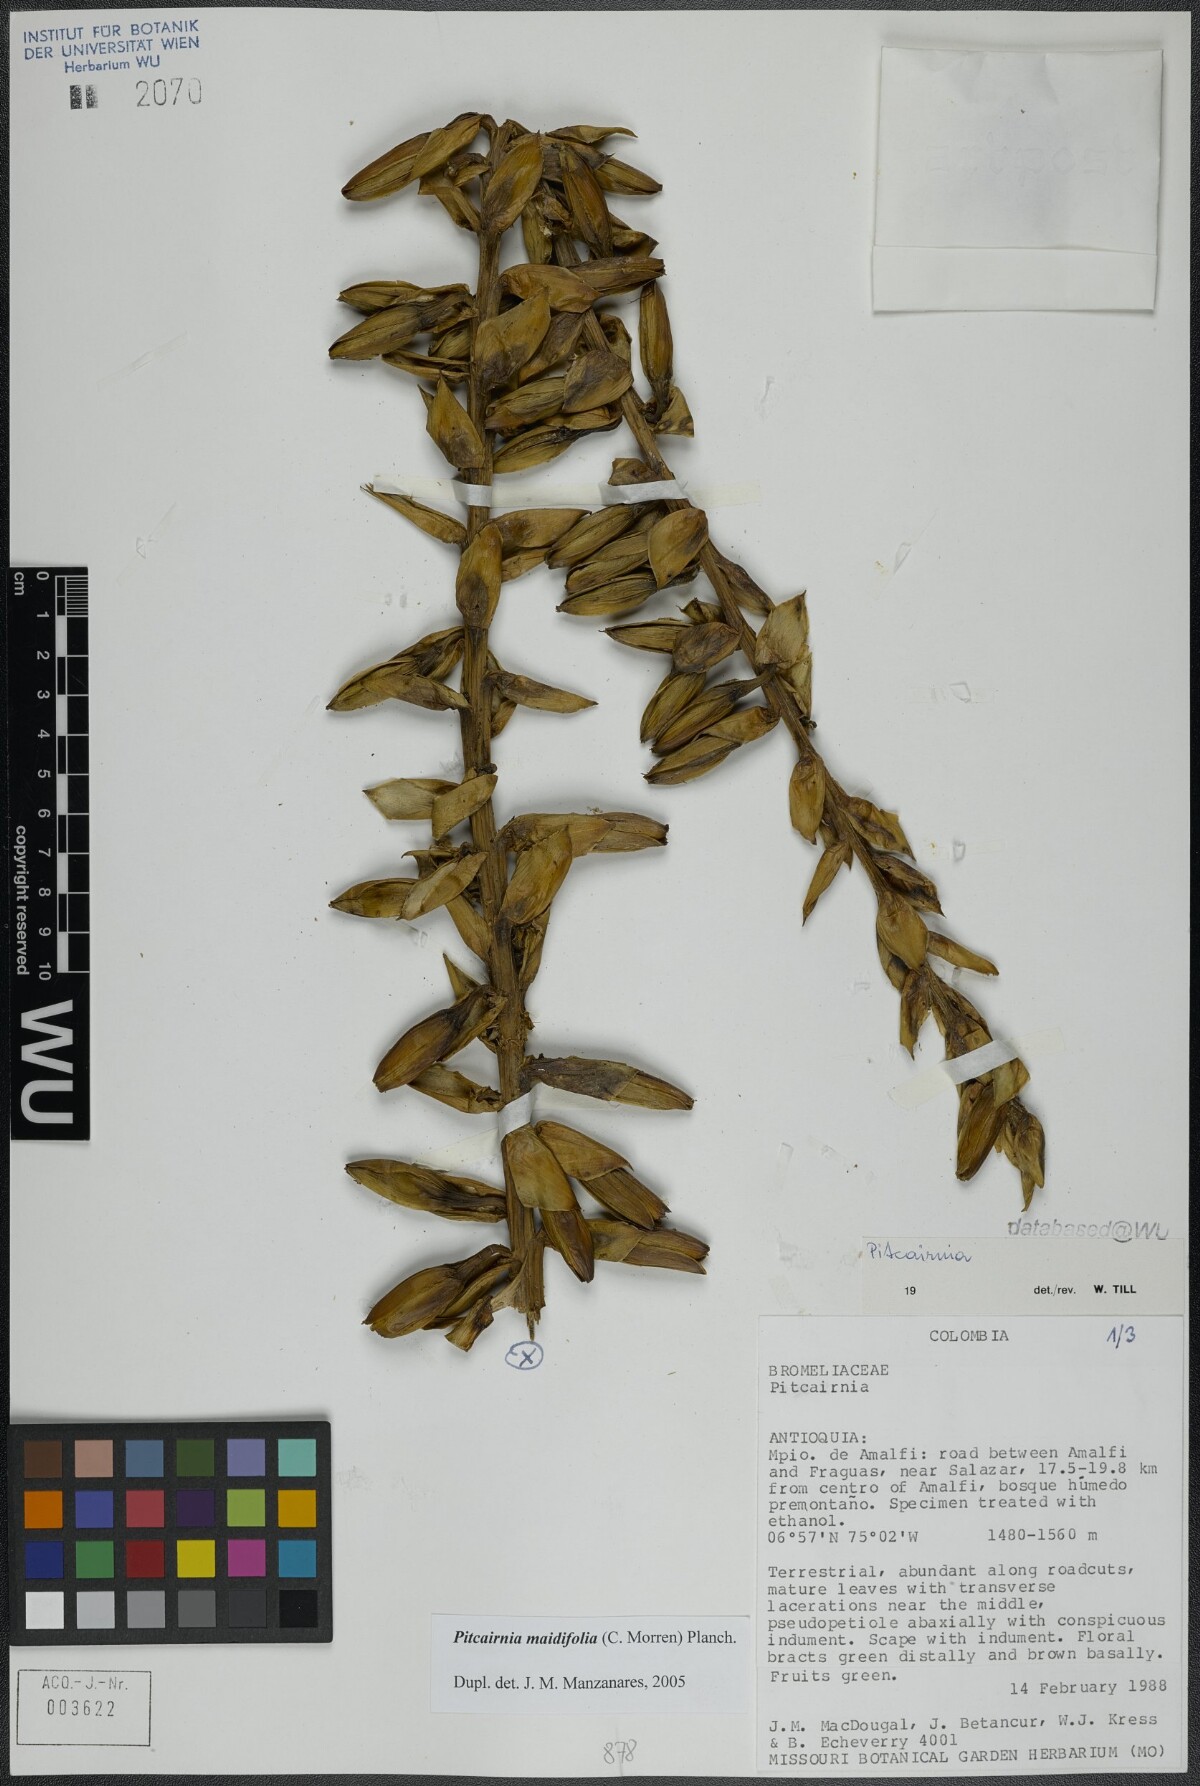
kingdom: Plantae
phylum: Tracheophyta
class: Liliopsida
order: Poales
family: Bromeliaceae
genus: Pitcairnia
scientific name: Pitcairnia maidifolia
